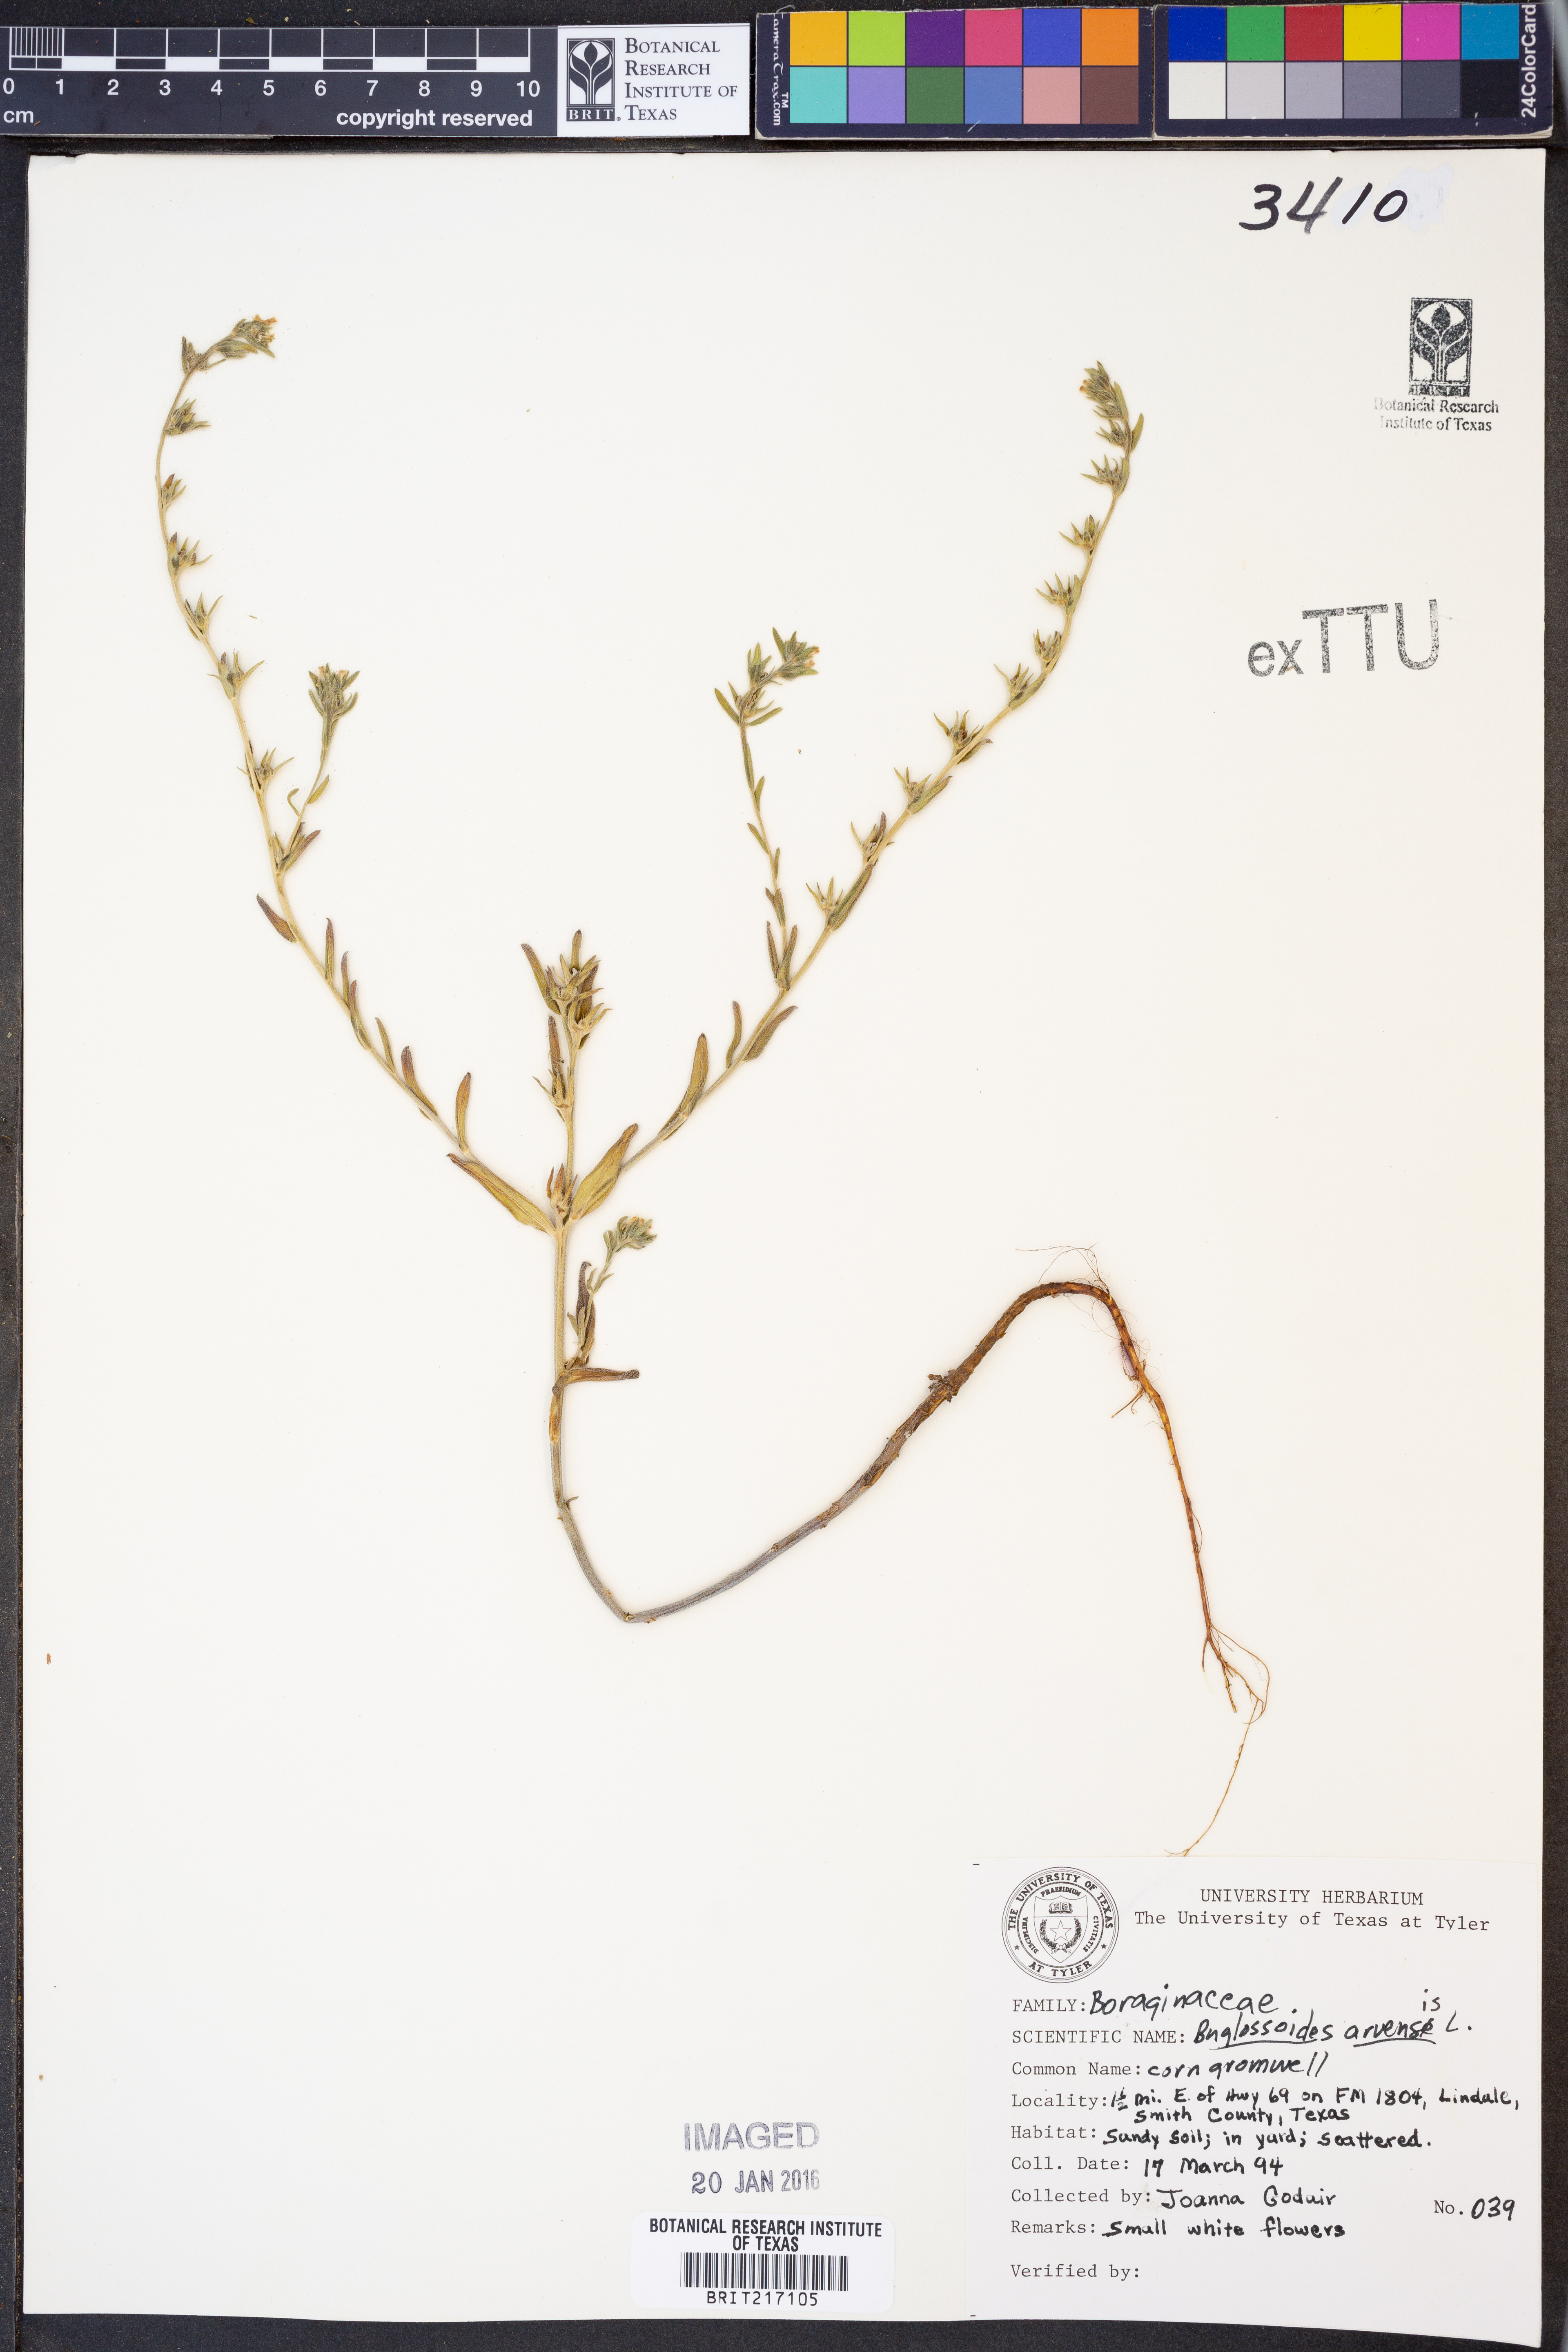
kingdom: Plantae
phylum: Tracheophyta
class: Magnoliopsida
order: Boraginales
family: Boraginaceae
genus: Buglossoides
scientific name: Buglossoides arvensis
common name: Corn gromwell
